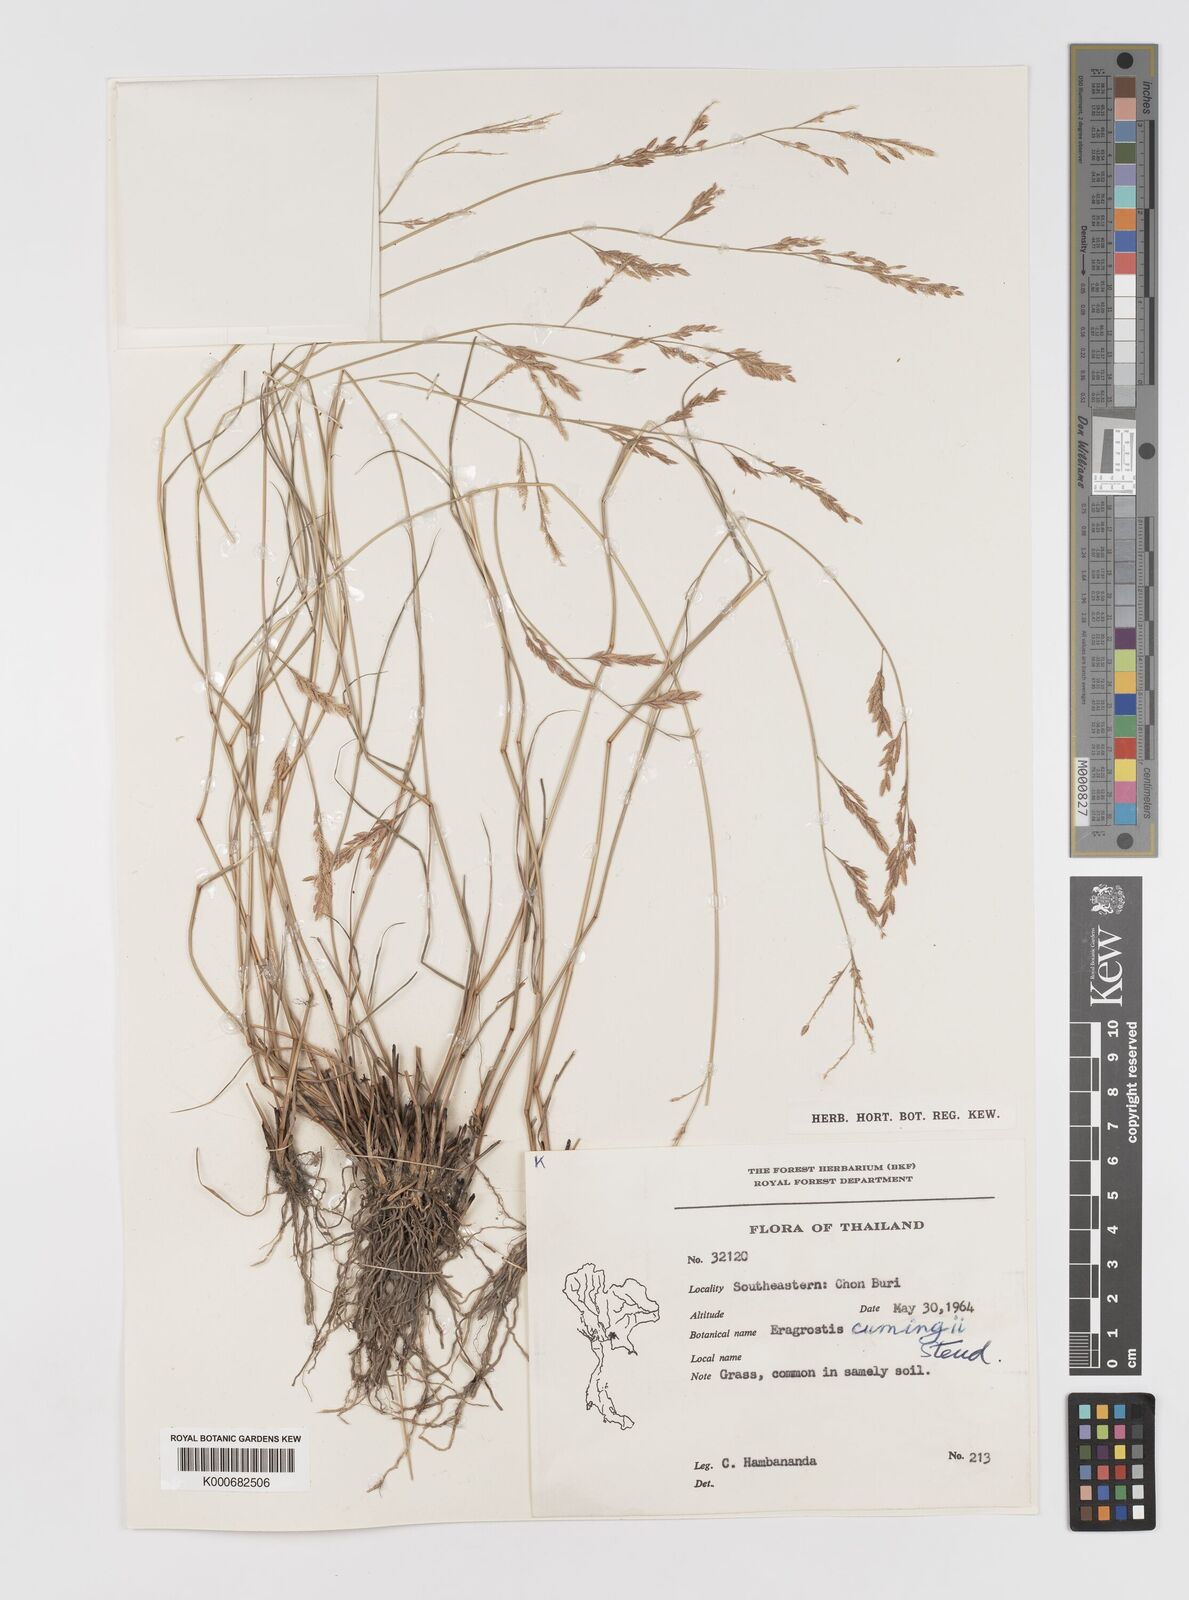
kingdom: Plantae
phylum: Tracheophyta
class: Liliopsida
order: Poales
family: Poaceae
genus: Eragrostis
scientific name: Eragrostis brownii
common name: Lovegrass
